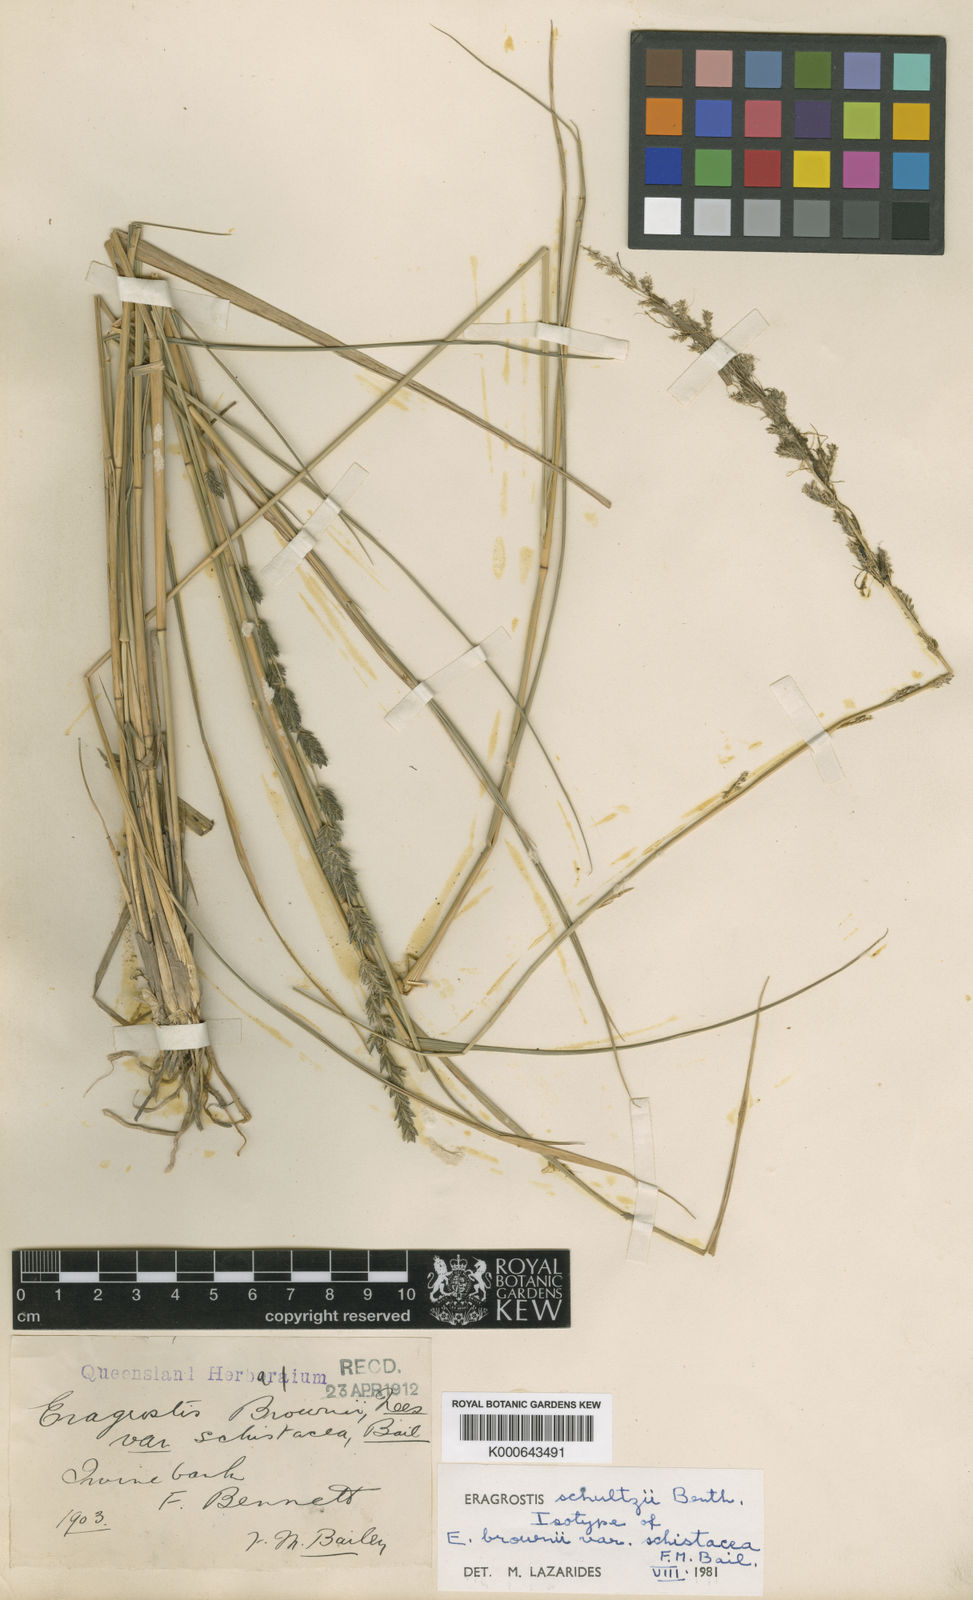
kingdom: Plantae
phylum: Tracheophyta
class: Liliopsida
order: Poales
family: Poaceae
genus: Eragrostis
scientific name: Eragrostis schultzii
